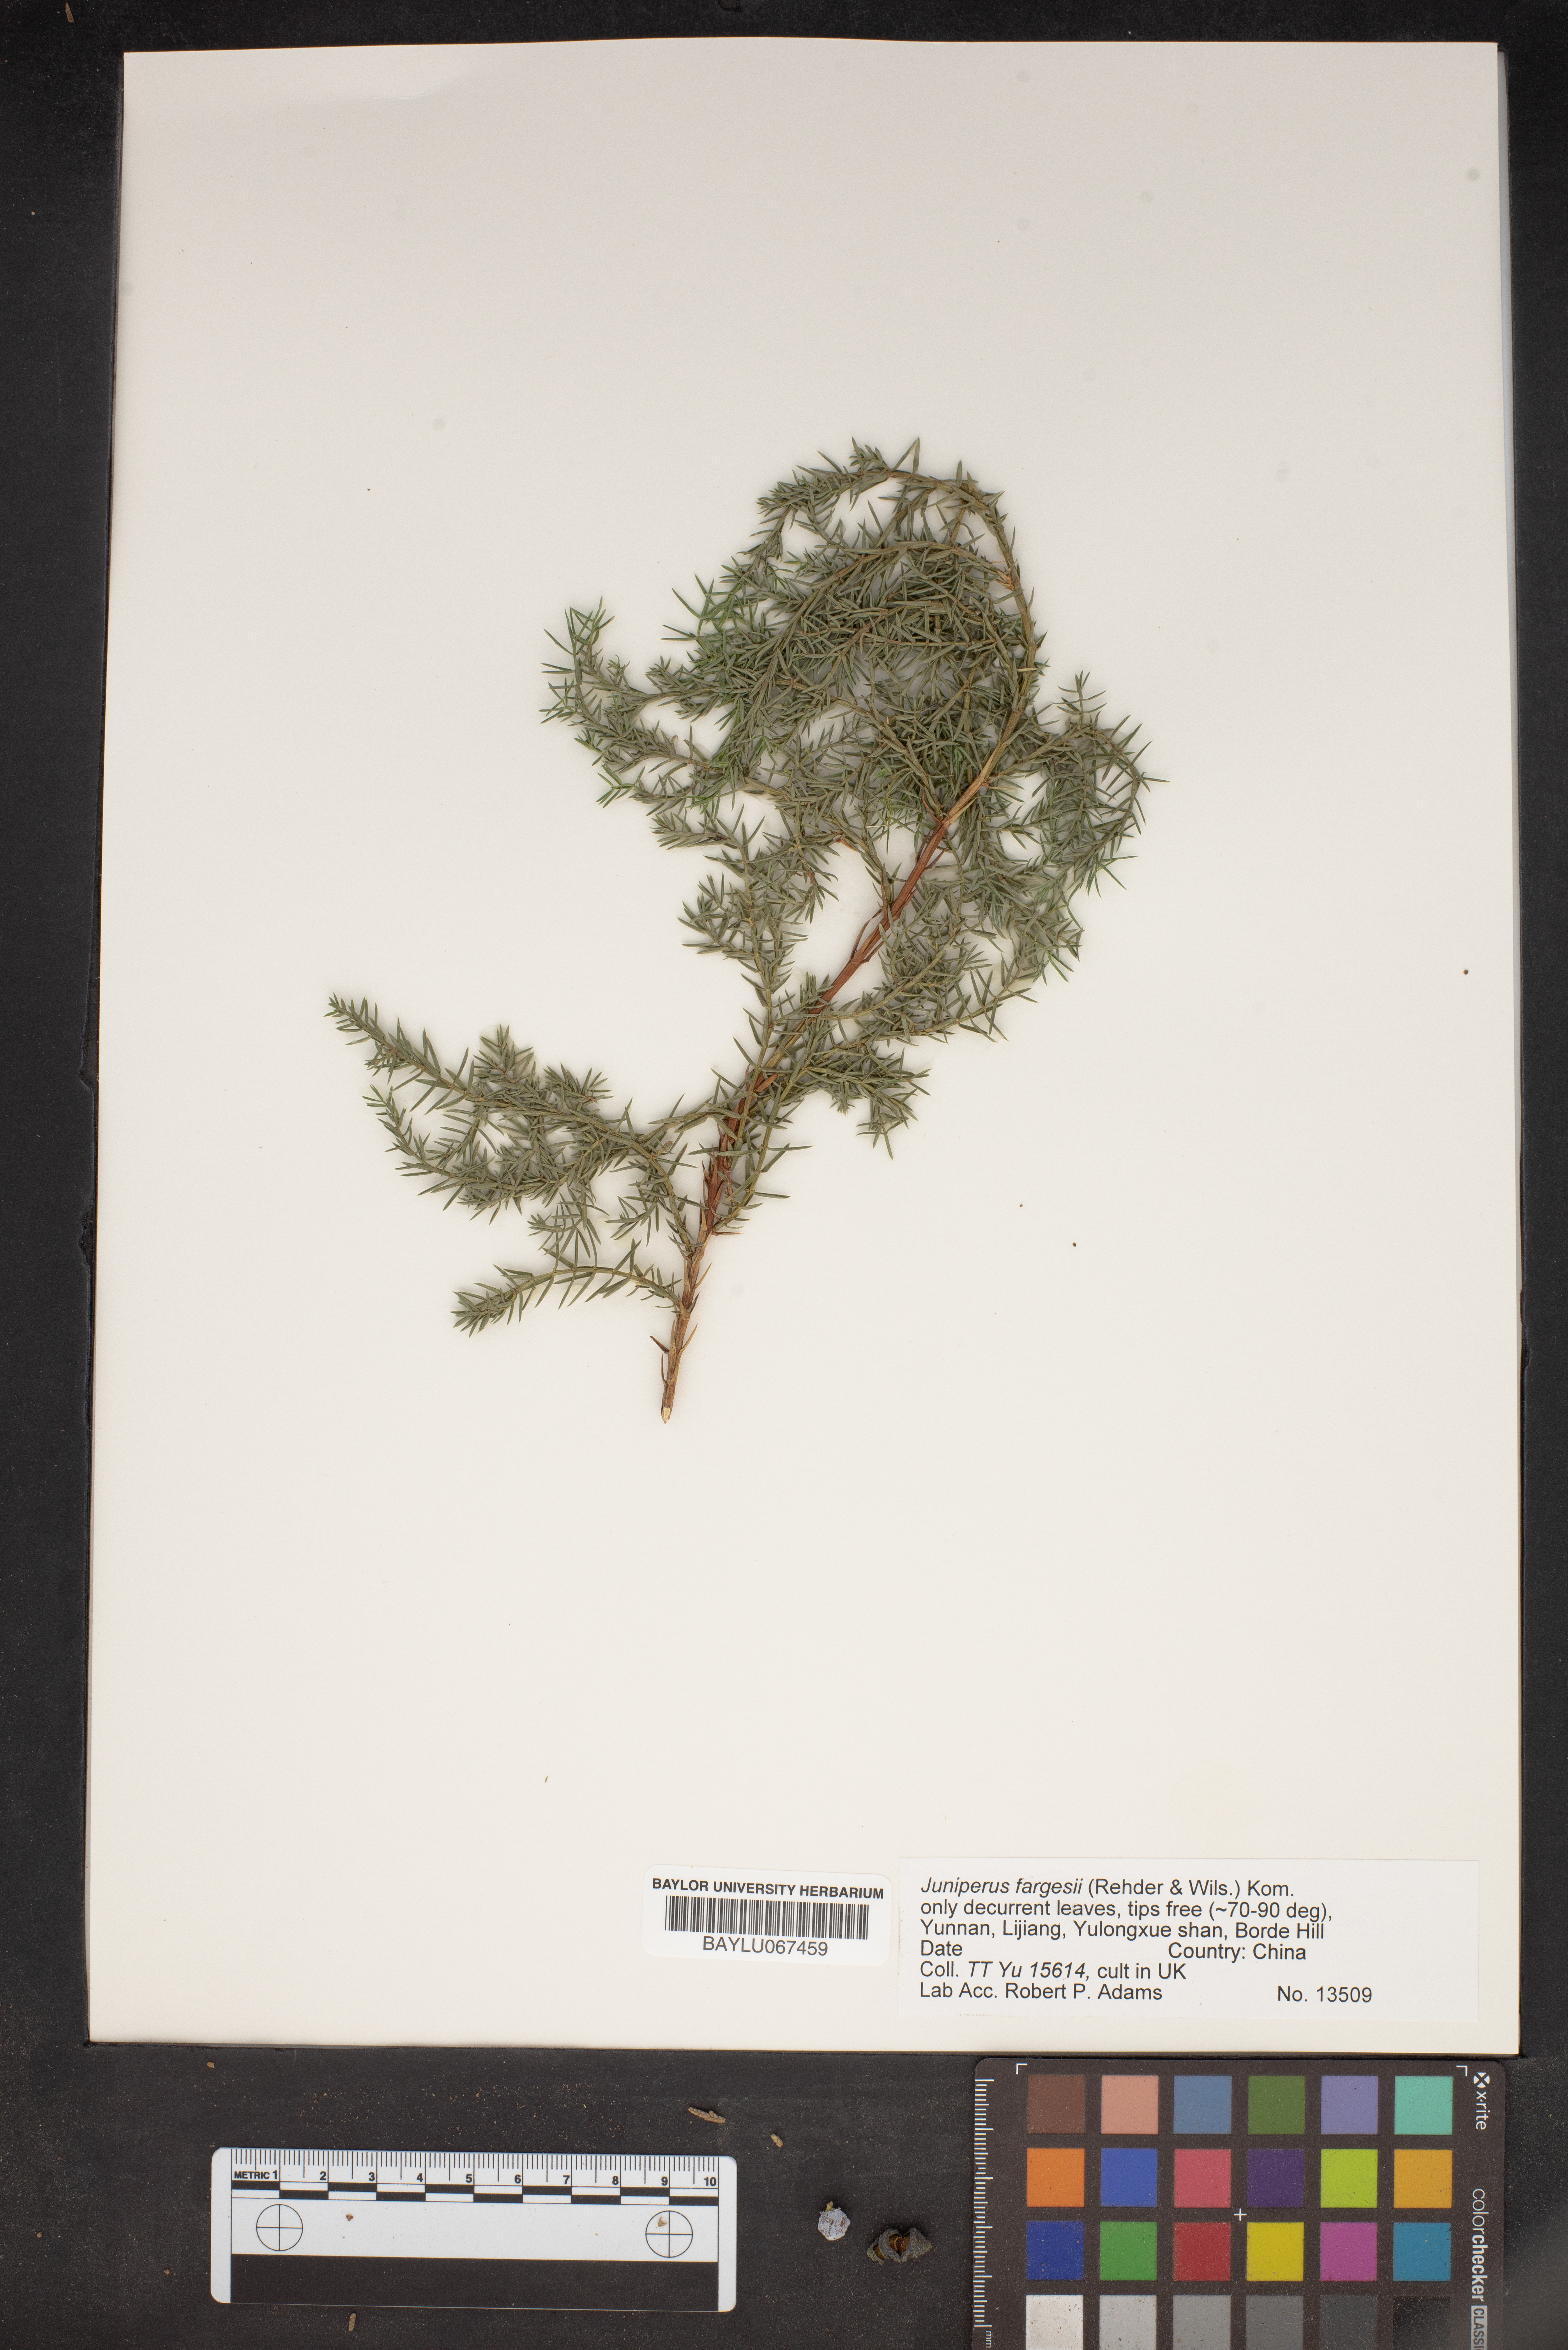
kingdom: Plantae
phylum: Tracheophyta
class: Pinopsida
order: Pinales
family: Cupressaceae
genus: Juniperus
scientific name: Juniperus squamata
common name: Flaky juniper
